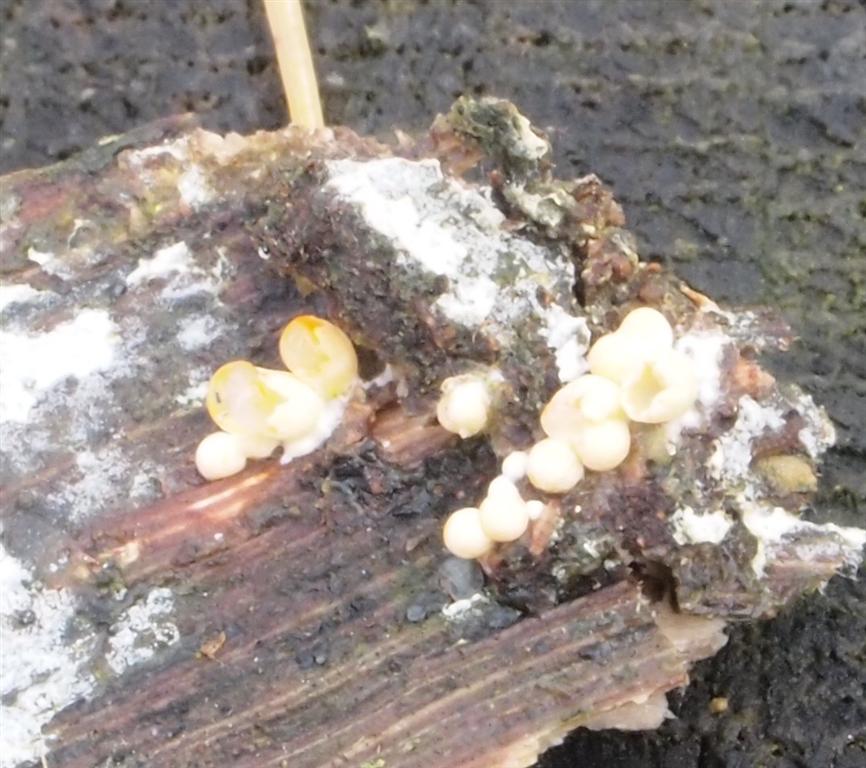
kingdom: Fungi
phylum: Basidiomycota
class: Agaricomycetes
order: Geastrales
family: Geastraceae
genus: Sphaerobolus
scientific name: Sphaerobolus stellatus
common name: bombekaster
